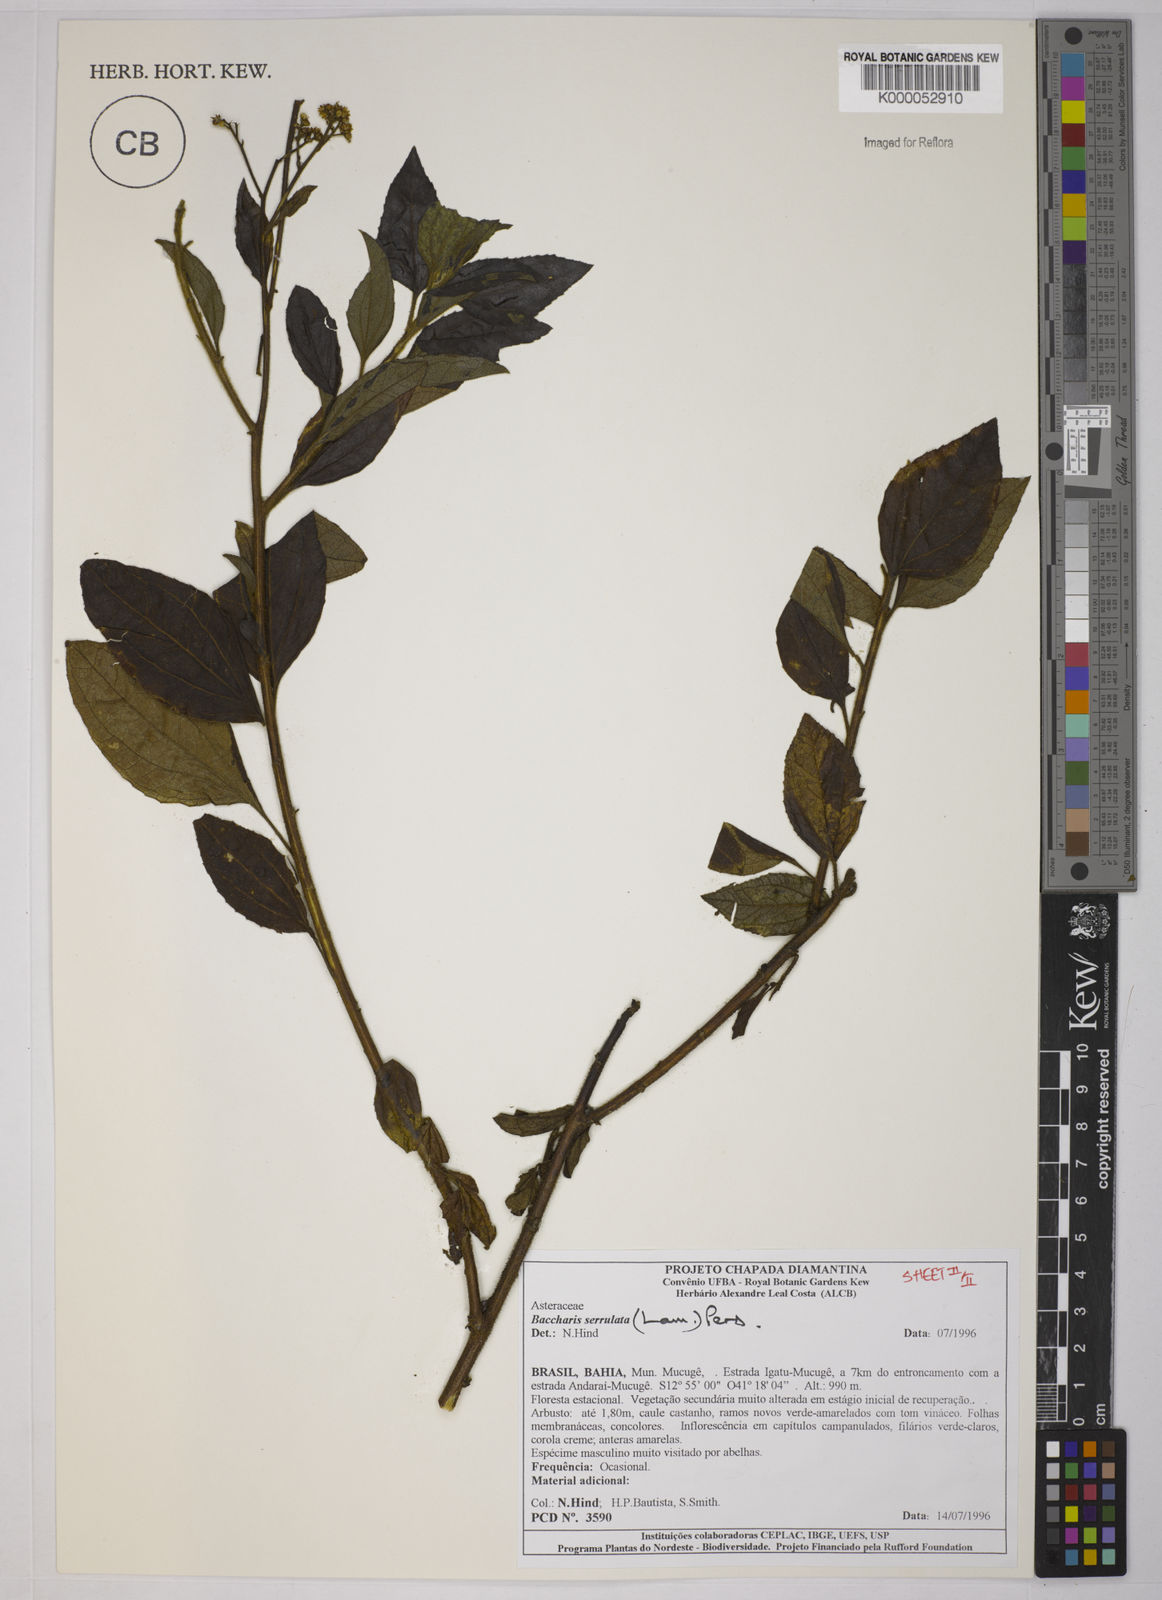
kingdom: Plantae
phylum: Tracheophyta
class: Magnoliopsida
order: Asterales
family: Asteraceae
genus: Baccharis
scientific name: Baccharis serrulata
